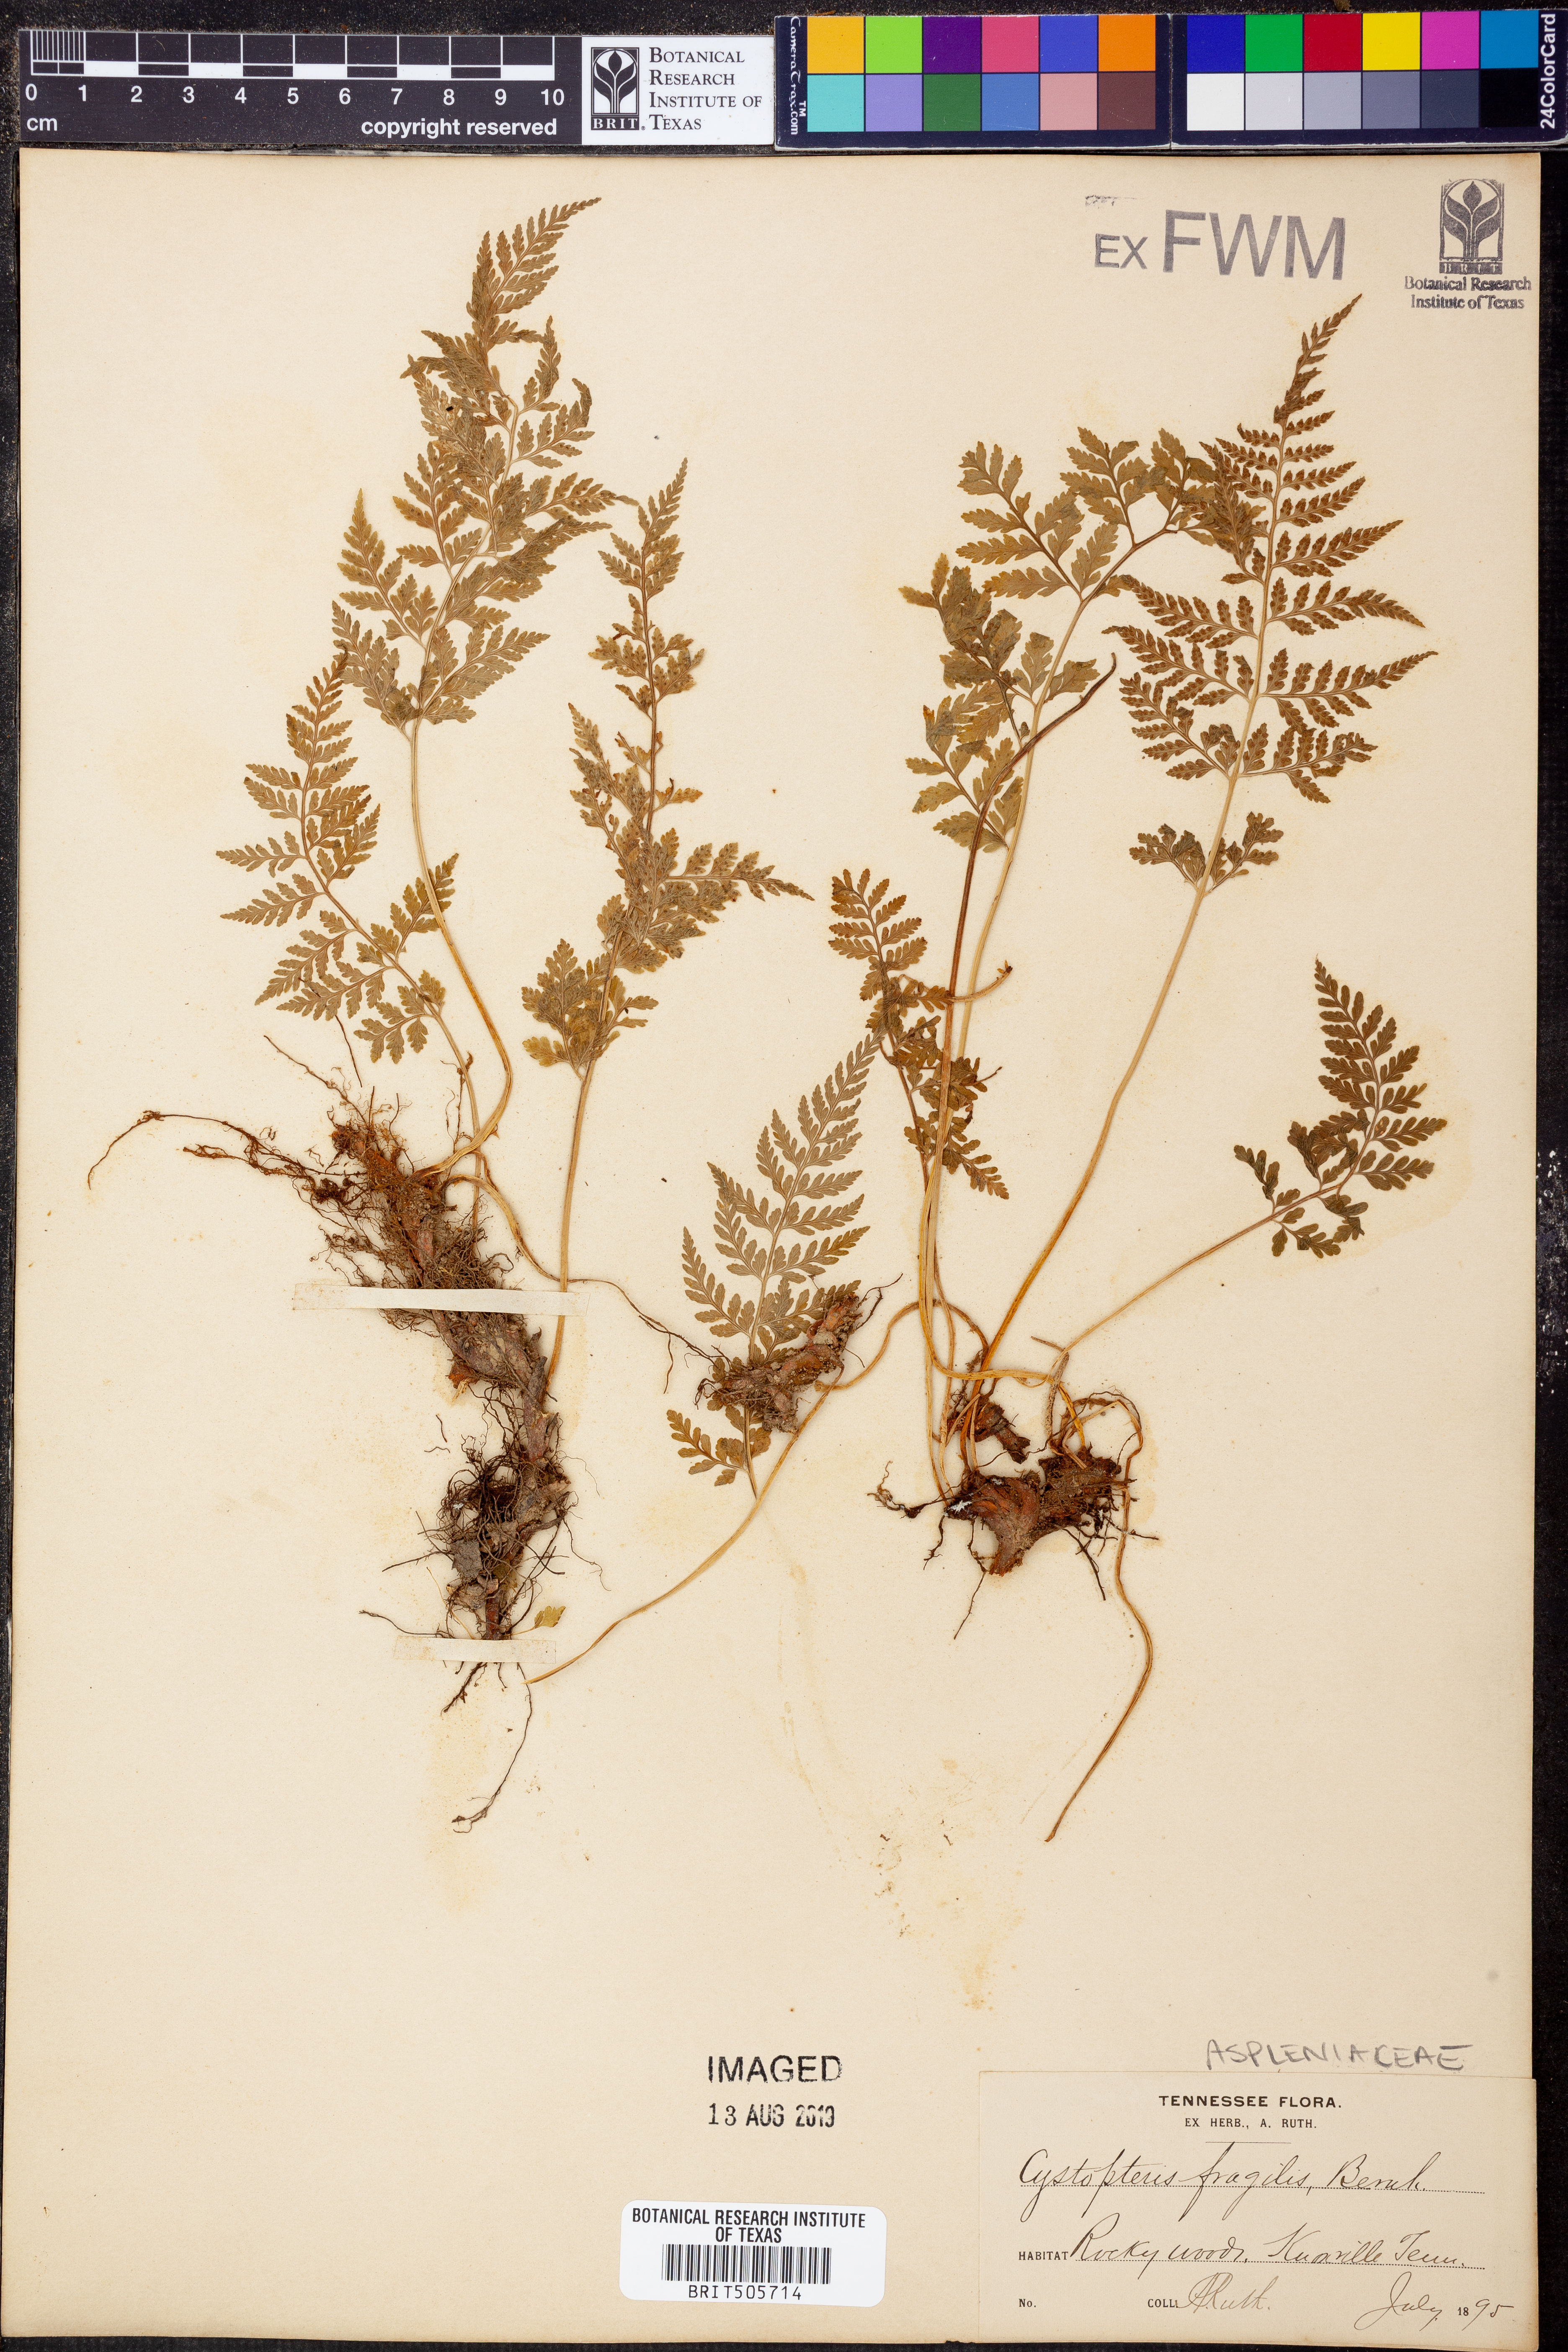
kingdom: Plantae
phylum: Tracheophyta
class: Polypodiopsida
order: Polypodiales
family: Cystopteridaceae
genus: Cystopteris
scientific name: Cystopteris fragilis
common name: Brittle bladder fern
